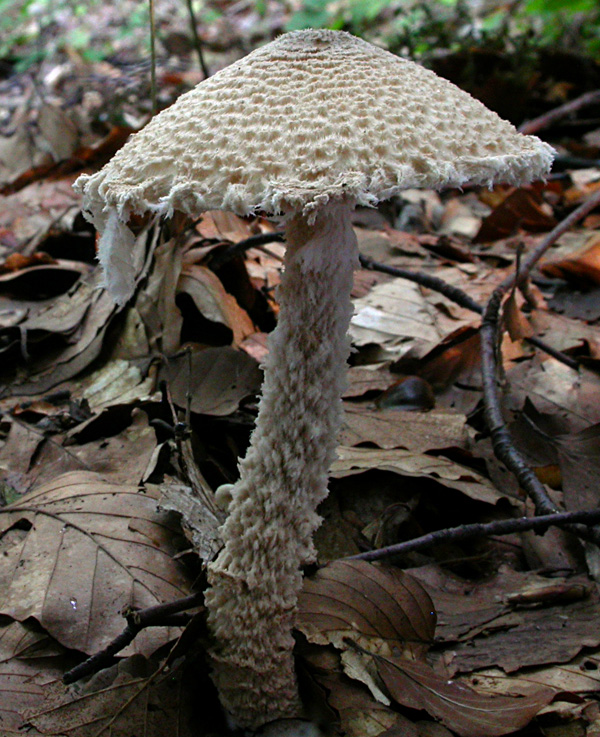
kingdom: Fungi
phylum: Basidiomycota
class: Agaricomycetes
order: Agaricales
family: Agaricaceae
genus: Lepiota
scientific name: Lepiota magnispora
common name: gulfnugget parasolhat
